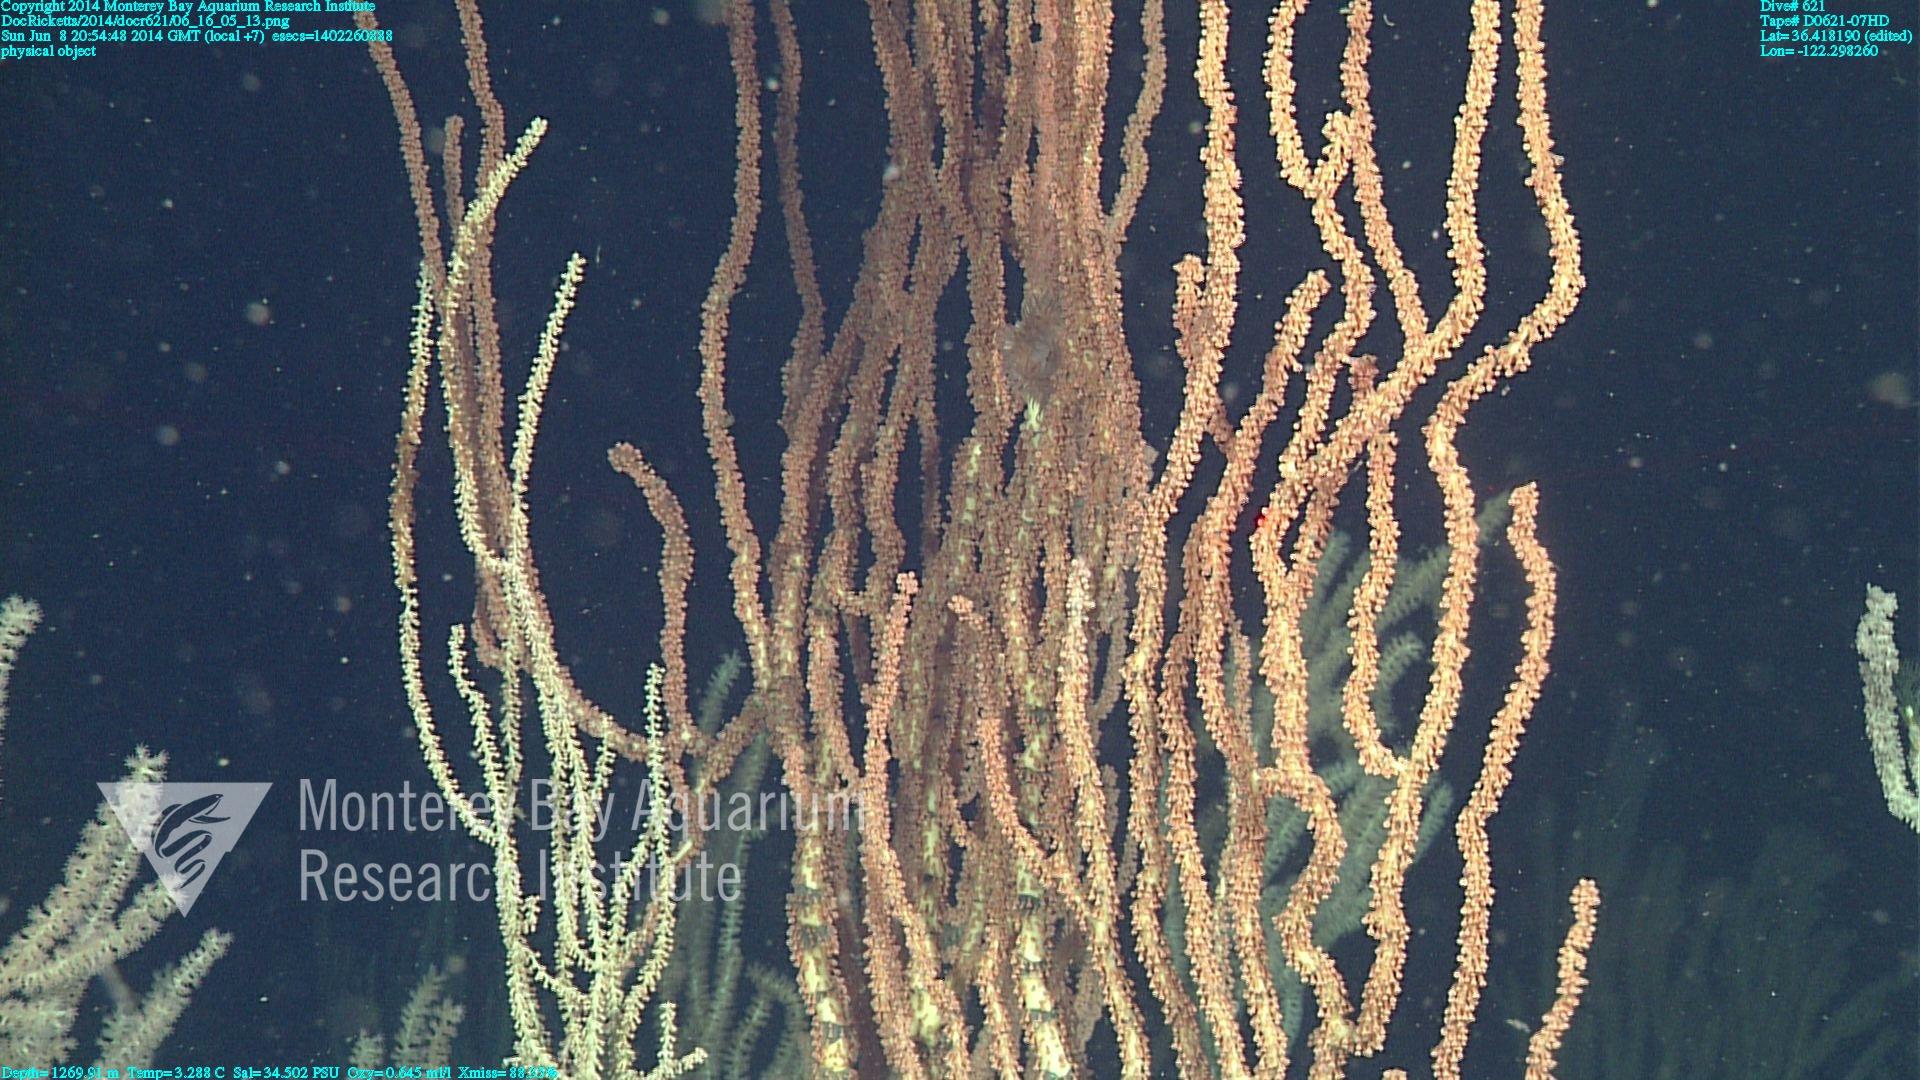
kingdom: Animalia
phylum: Cnidaria
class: Anthozoa
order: Scleralcyonacea
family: Keratoisididae
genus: Keratoisis
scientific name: Keratoisis
